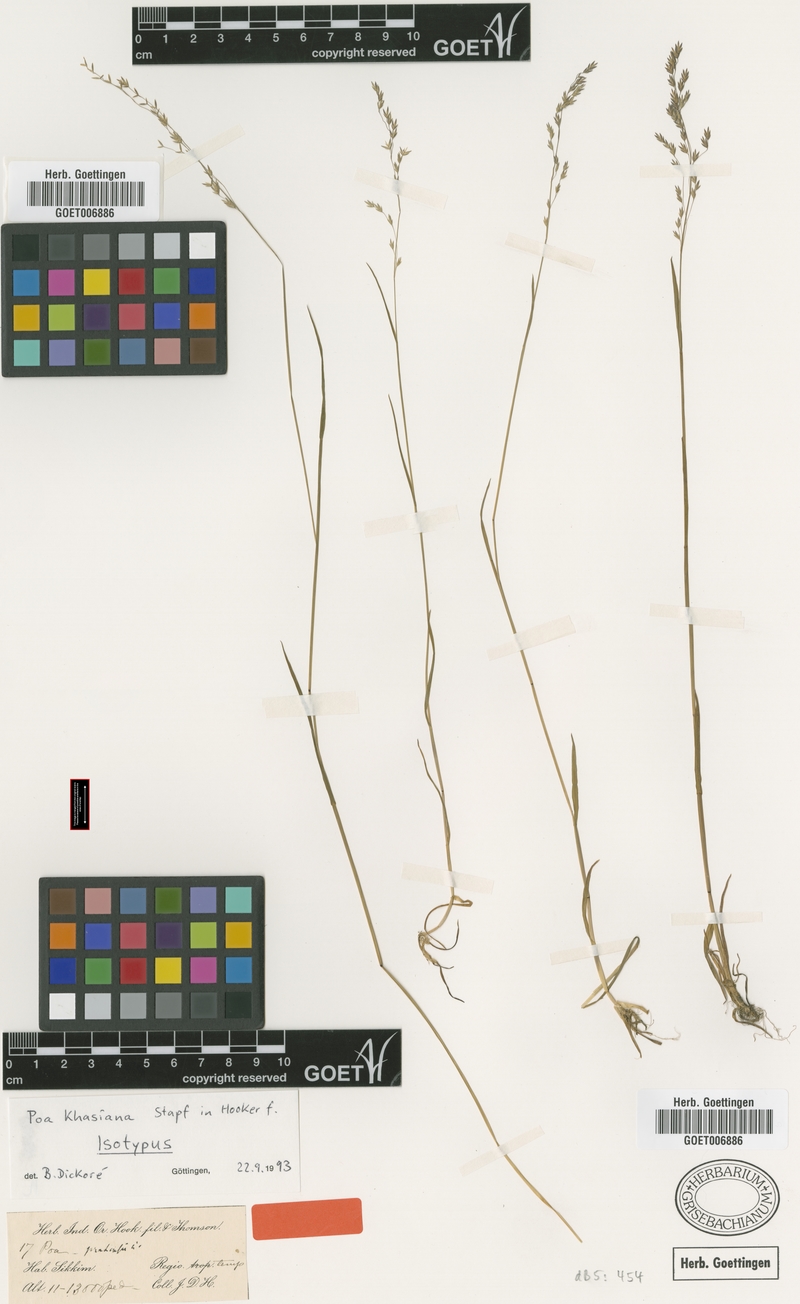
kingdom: Plantae
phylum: Tracheophyta
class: Liliopsida
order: Poales
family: Poaceae
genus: Poa
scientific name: Poa khasiana
